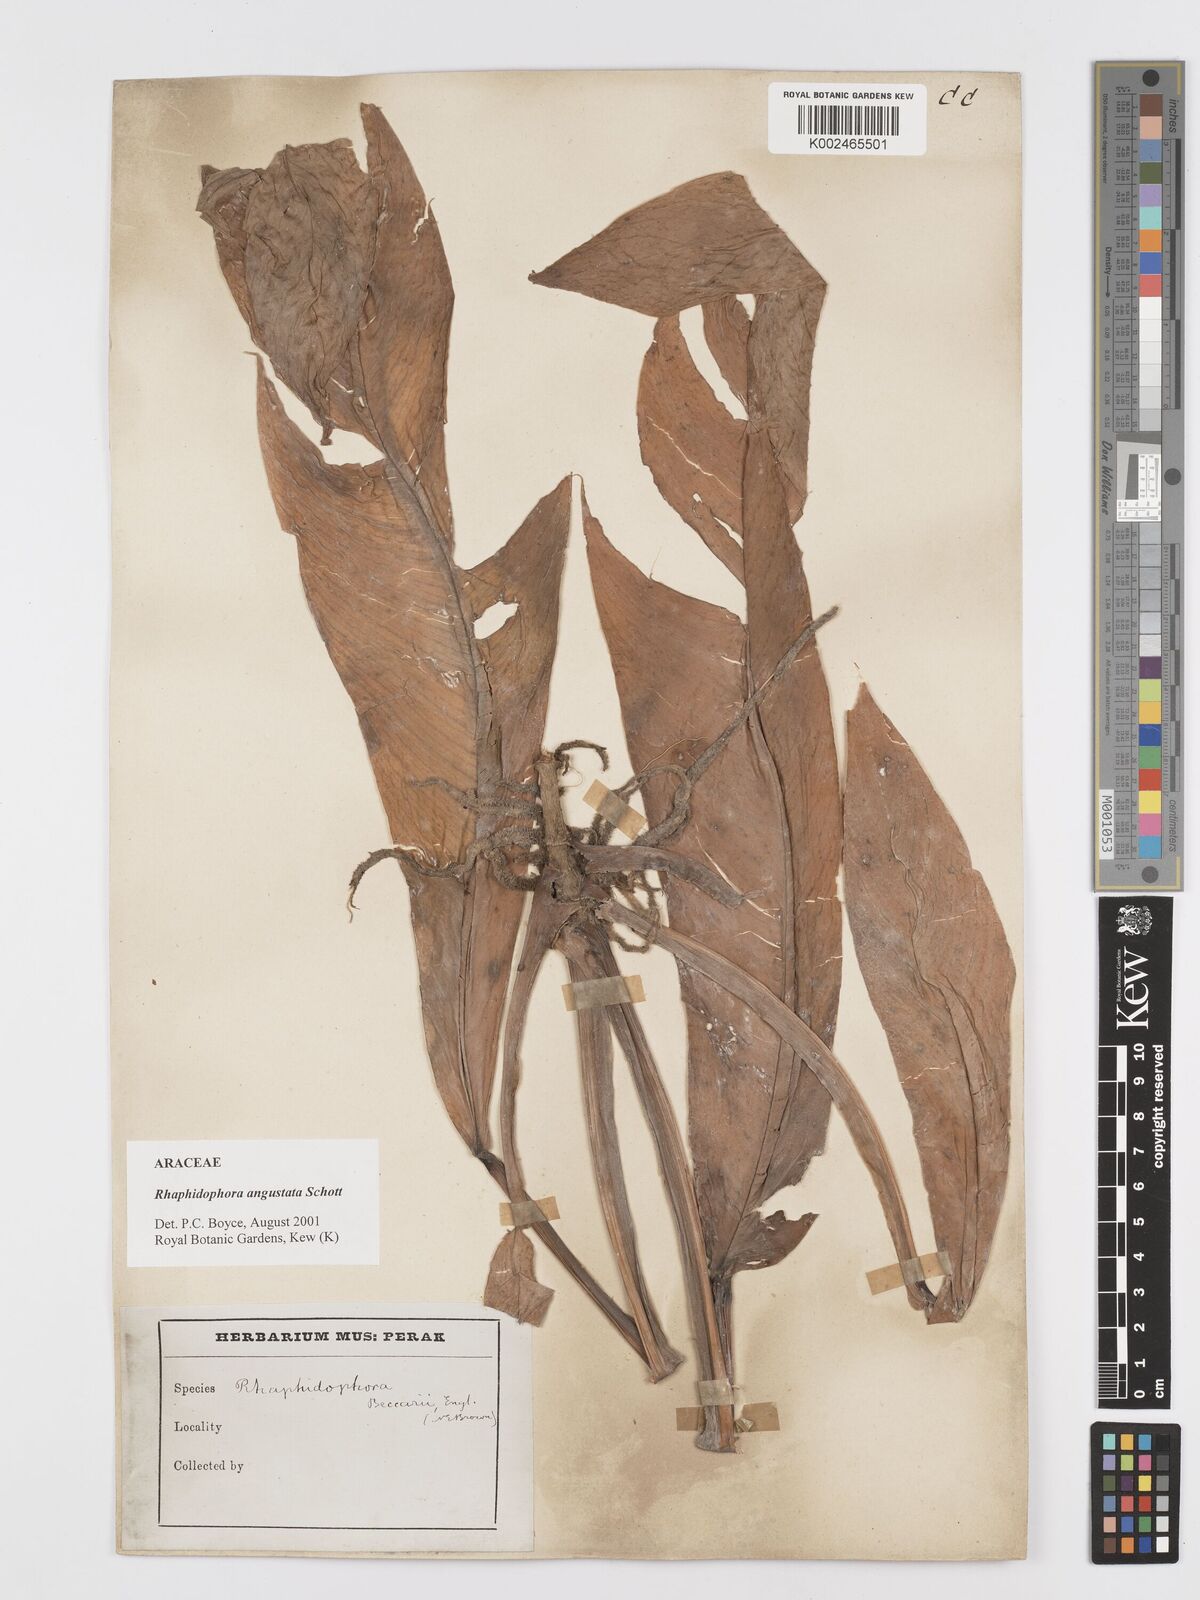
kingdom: Plantae
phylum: Tracheophyta
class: Liliopsida
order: Alismatales
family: Araceae
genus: Rhaphidophora
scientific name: Rhaphidophora angustata
